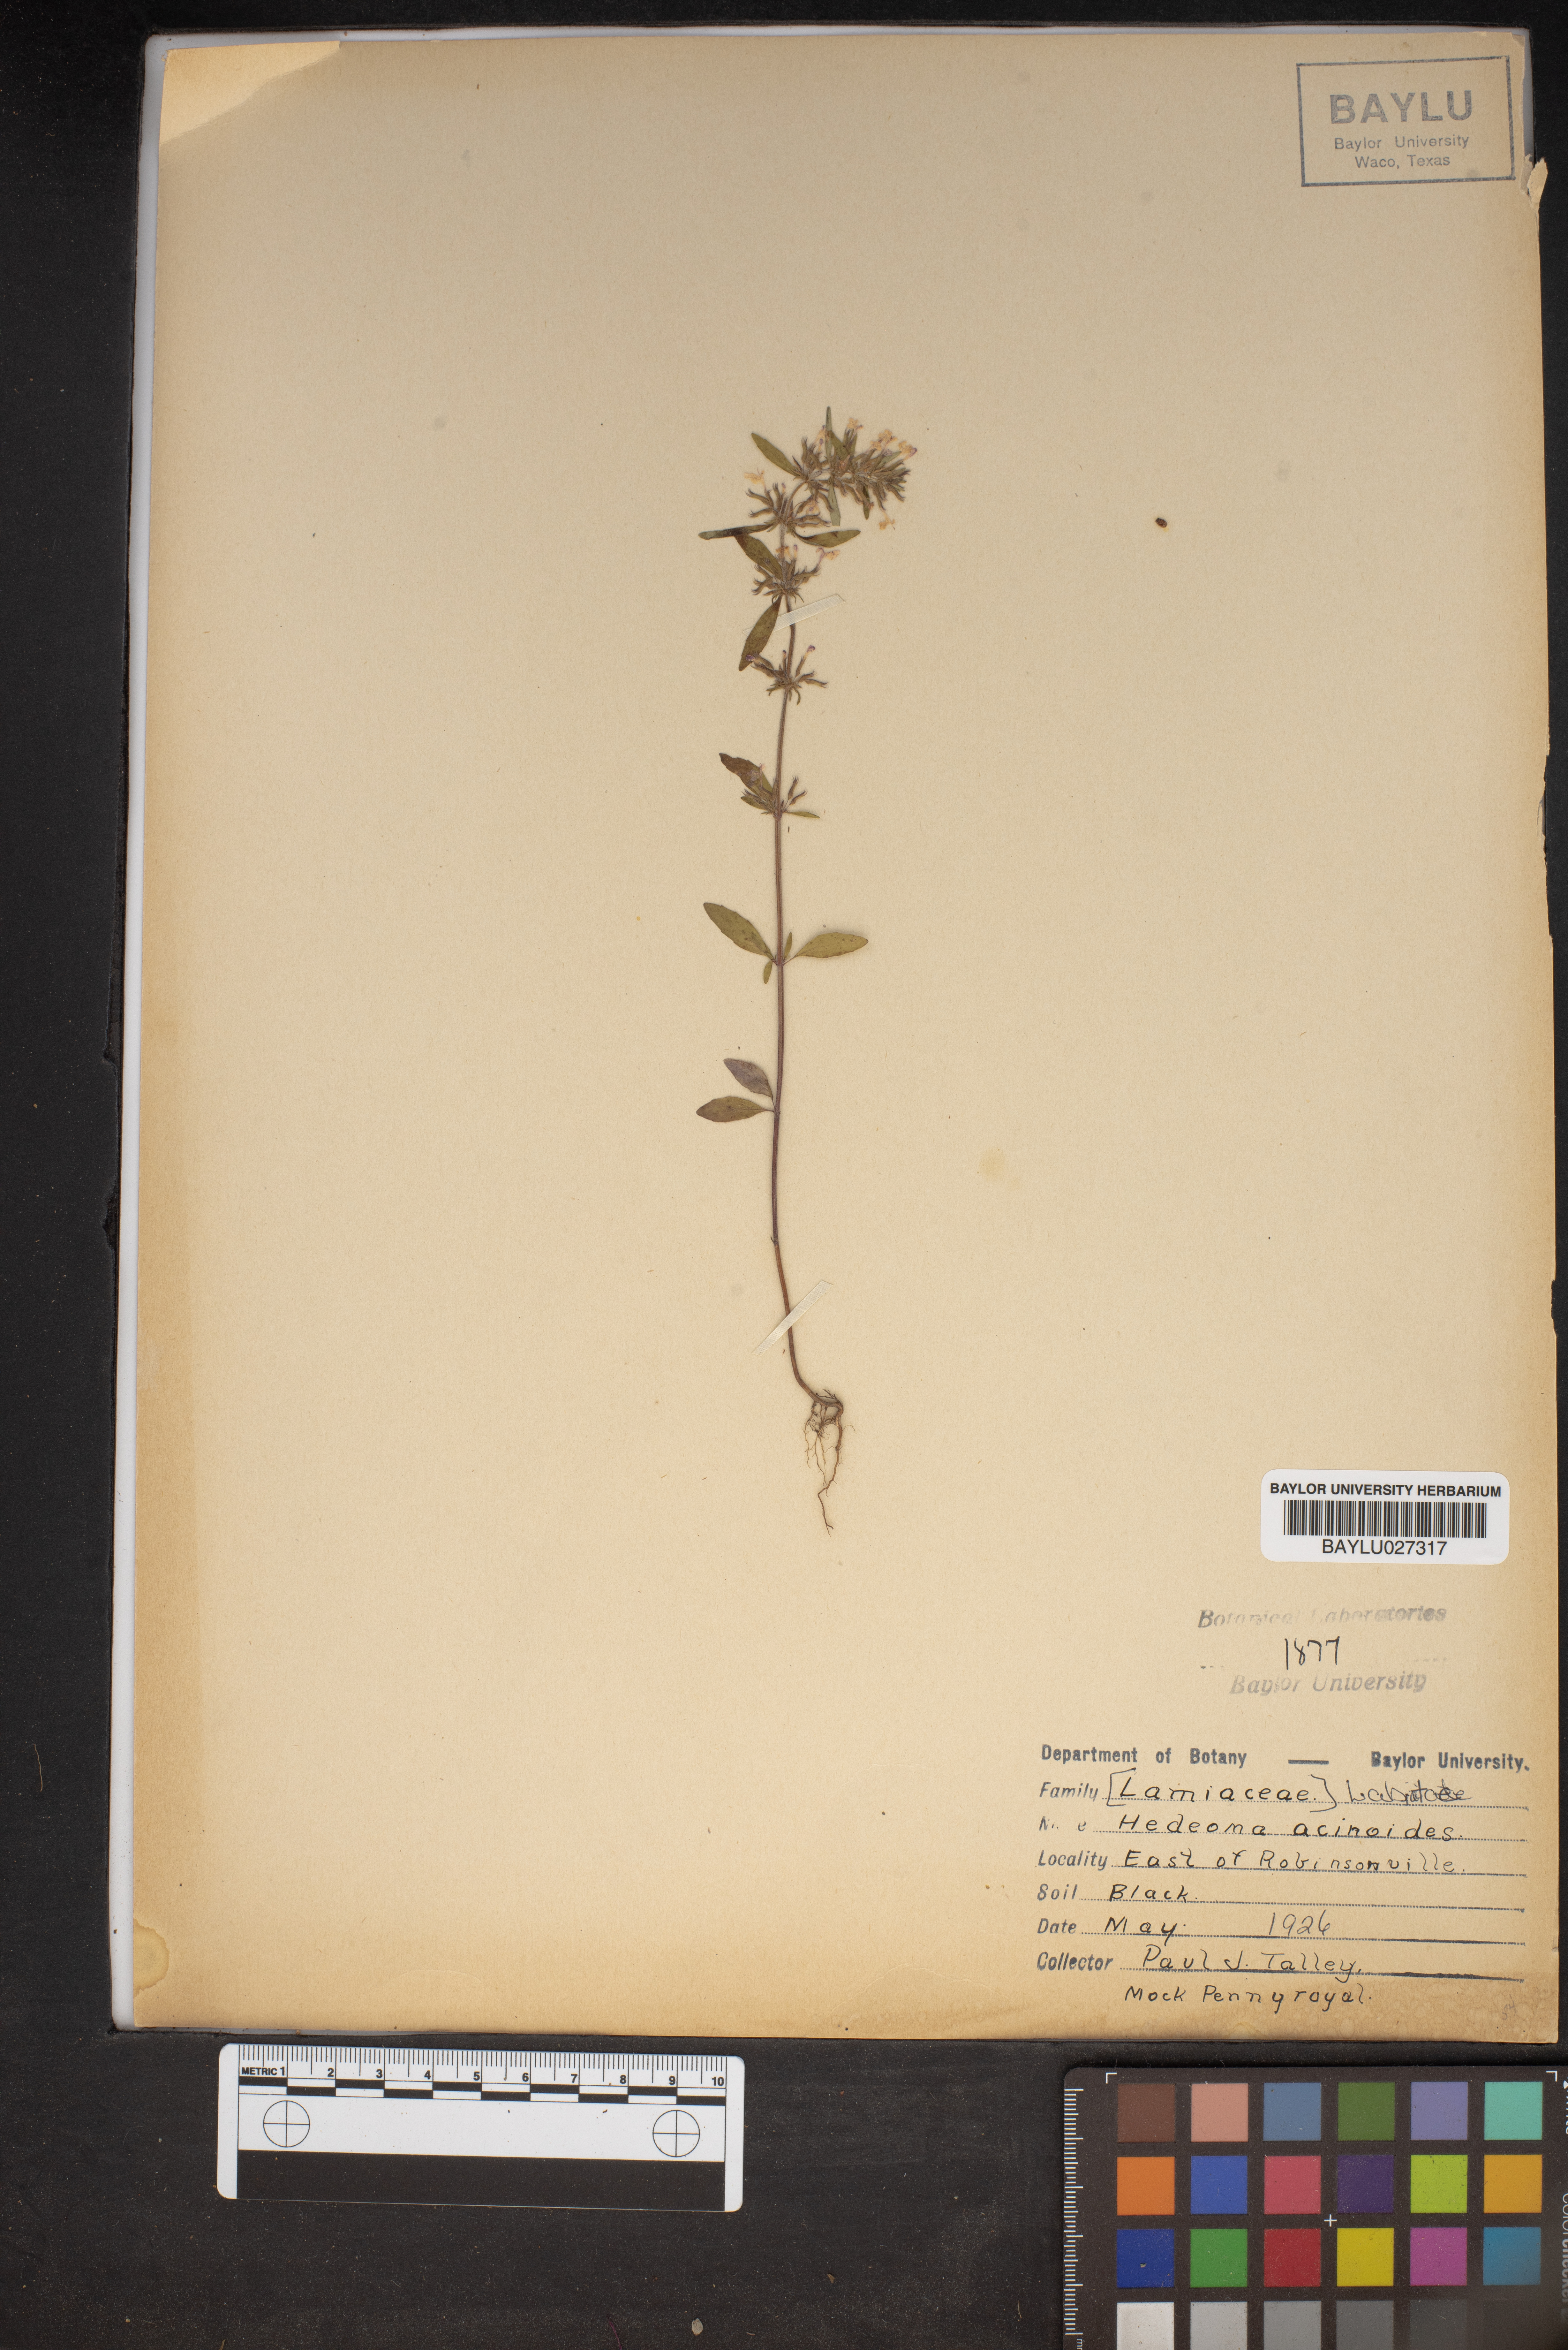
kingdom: Plantae
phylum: Tracheophyta
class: Magnoliopsida
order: Lamiales
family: Lamiaceae
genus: Hedeoma
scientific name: Hedeoma acinoides
